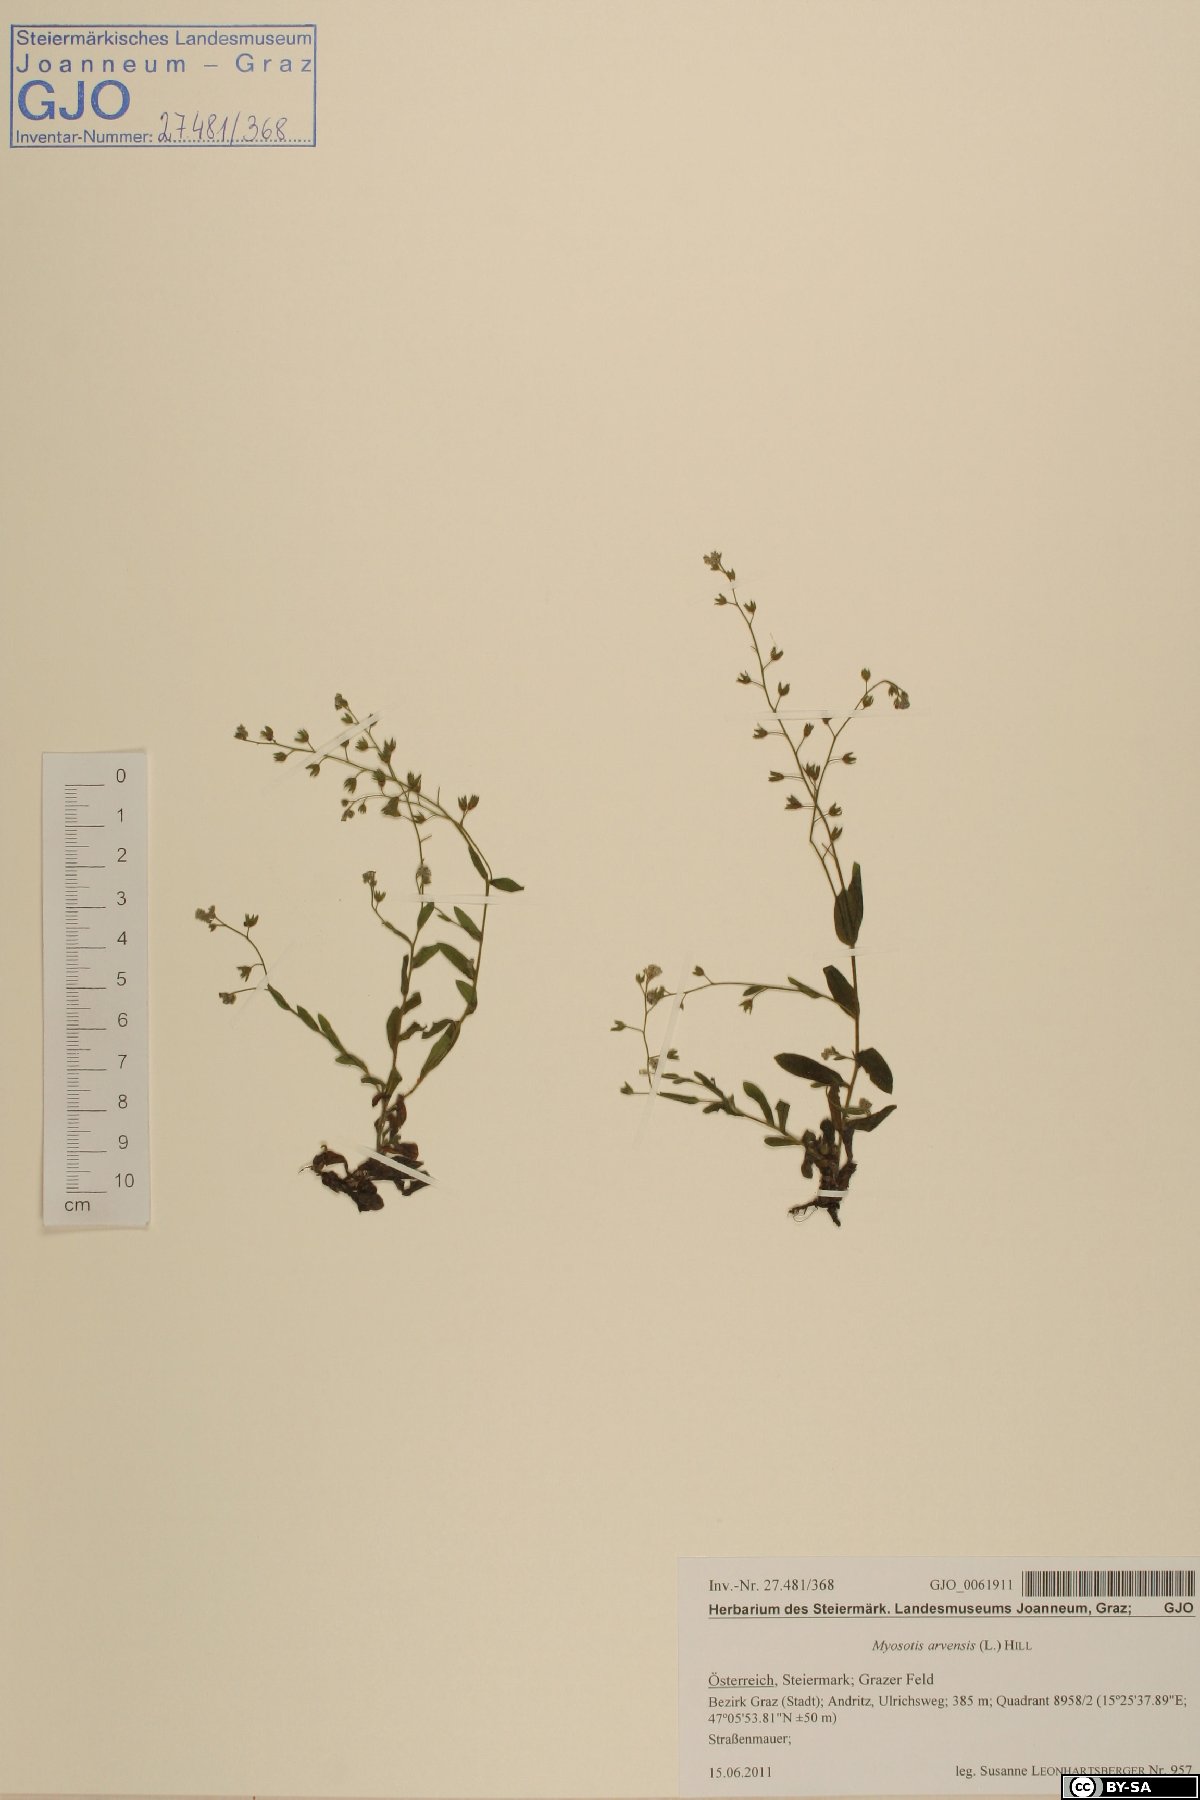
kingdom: Plantae
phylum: Tracheophyta
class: Magnoliopsida
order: Boraginales
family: Boraginaceae
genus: Myosotis
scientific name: Myosotis arvensis
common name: Field forget-me-not
